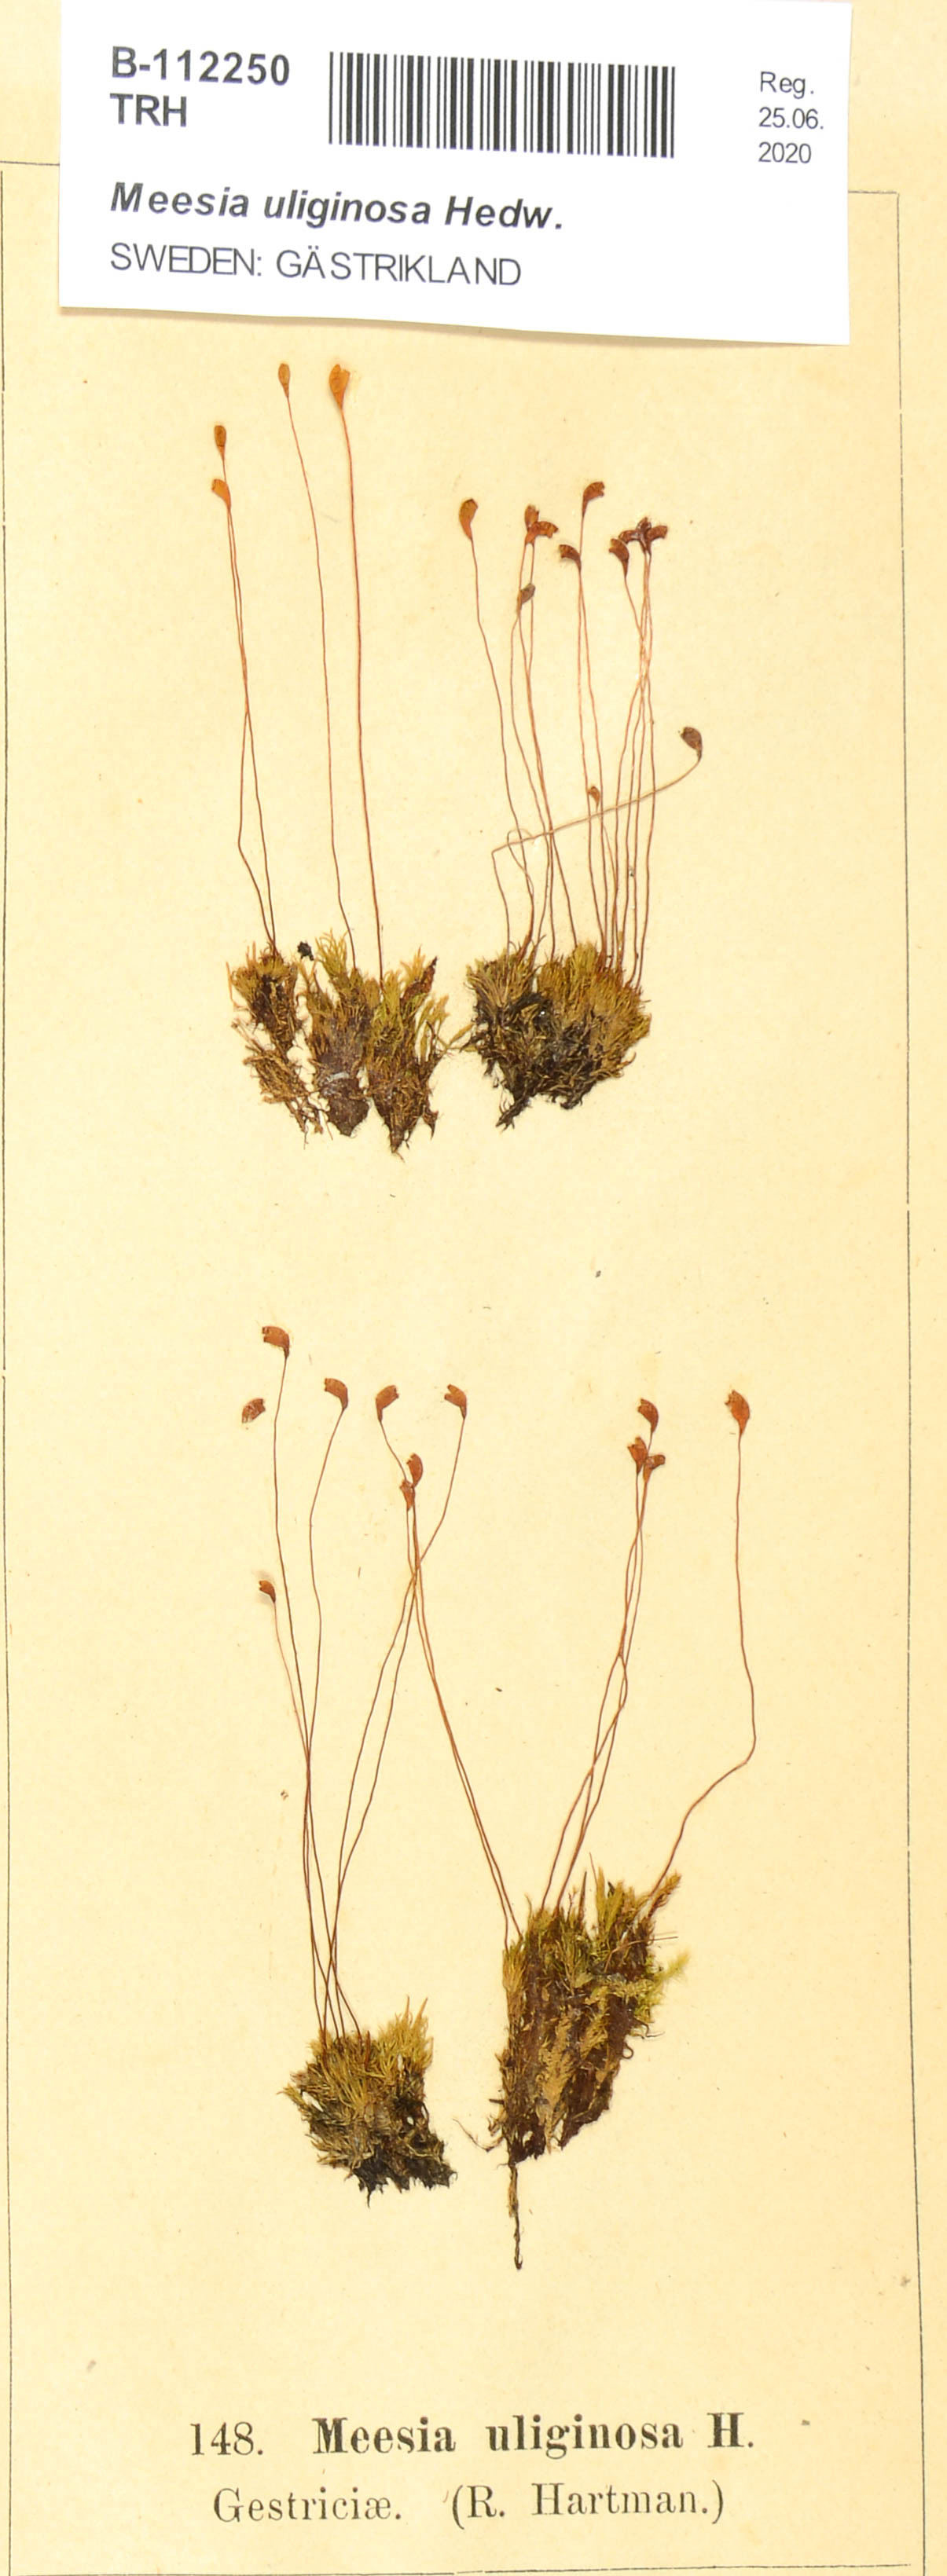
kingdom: Plantae
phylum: Bryophyta
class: Bryopsida
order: Splachnales
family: Meesiaceae
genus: Meesia
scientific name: Meesia uliginosa
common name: Capillary thread moss
